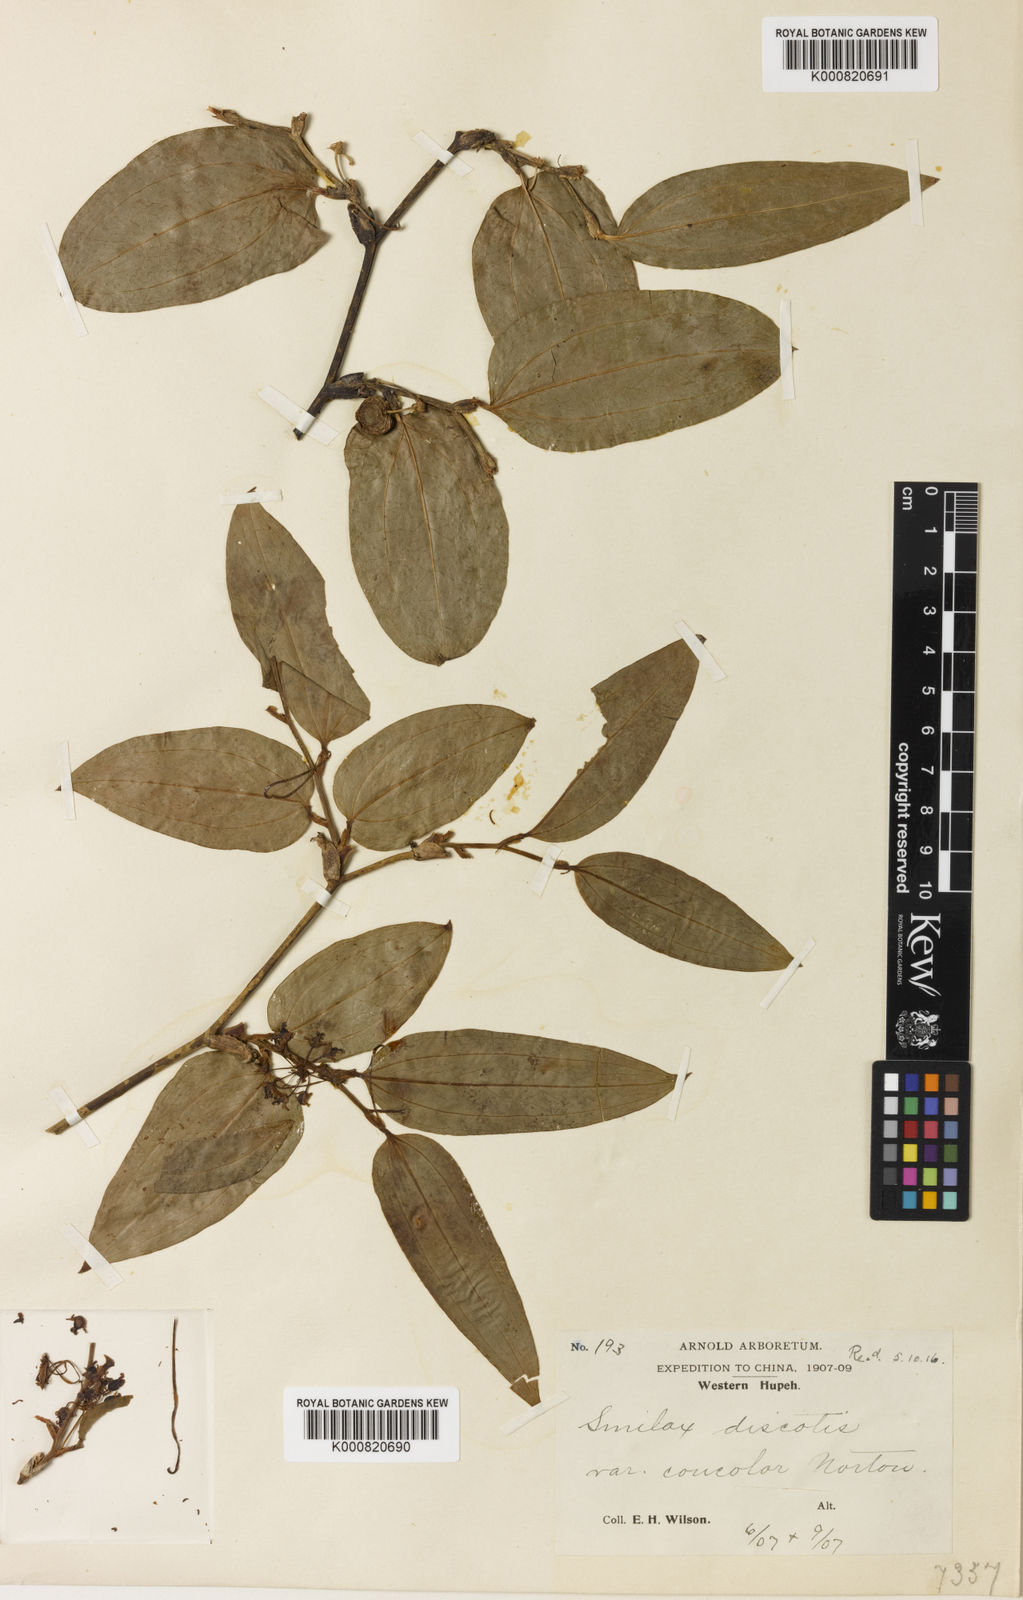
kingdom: Plantae
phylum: Tracheophyta
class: Liliopsida
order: Liliales
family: Smilacaceae
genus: Smilax
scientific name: Smilax outanscianensis
